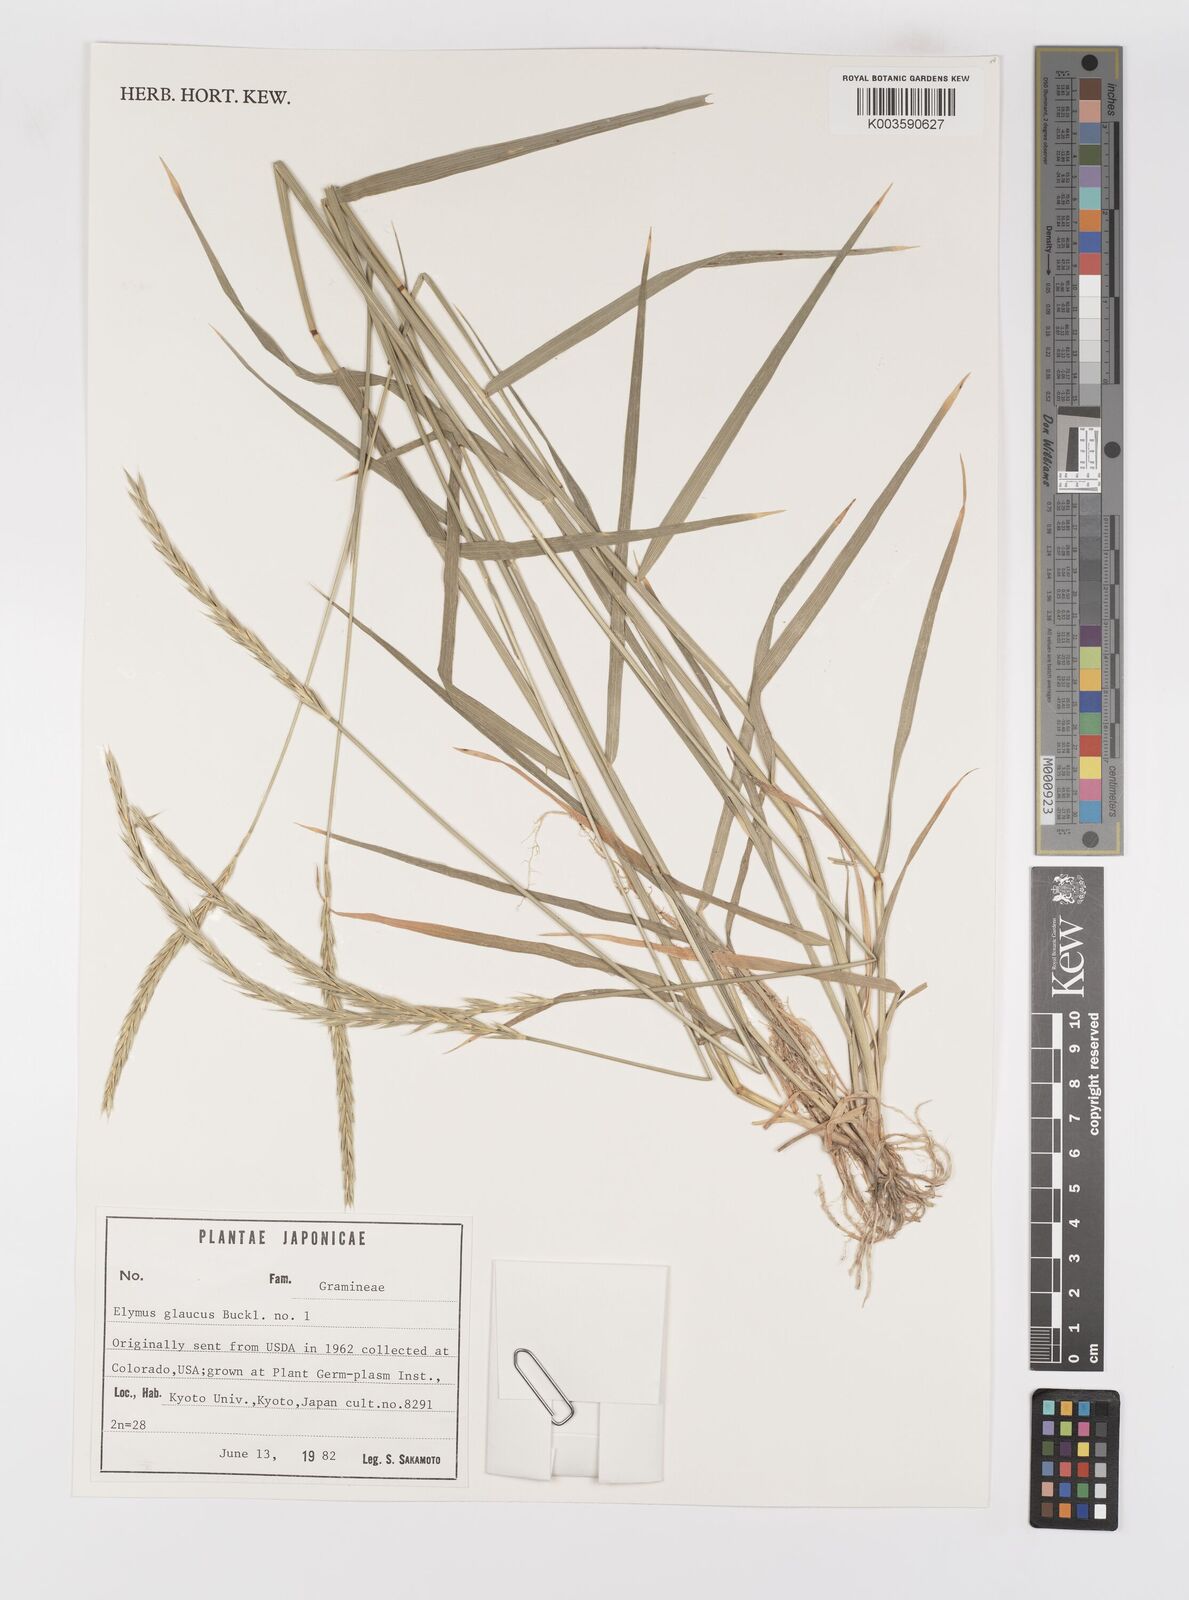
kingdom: Plantae
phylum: Tracheophyta
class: Liliopsida
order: Poales
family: Poaceae
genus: Elymus
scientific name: Elymus glaucus
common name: Blue wild rye
